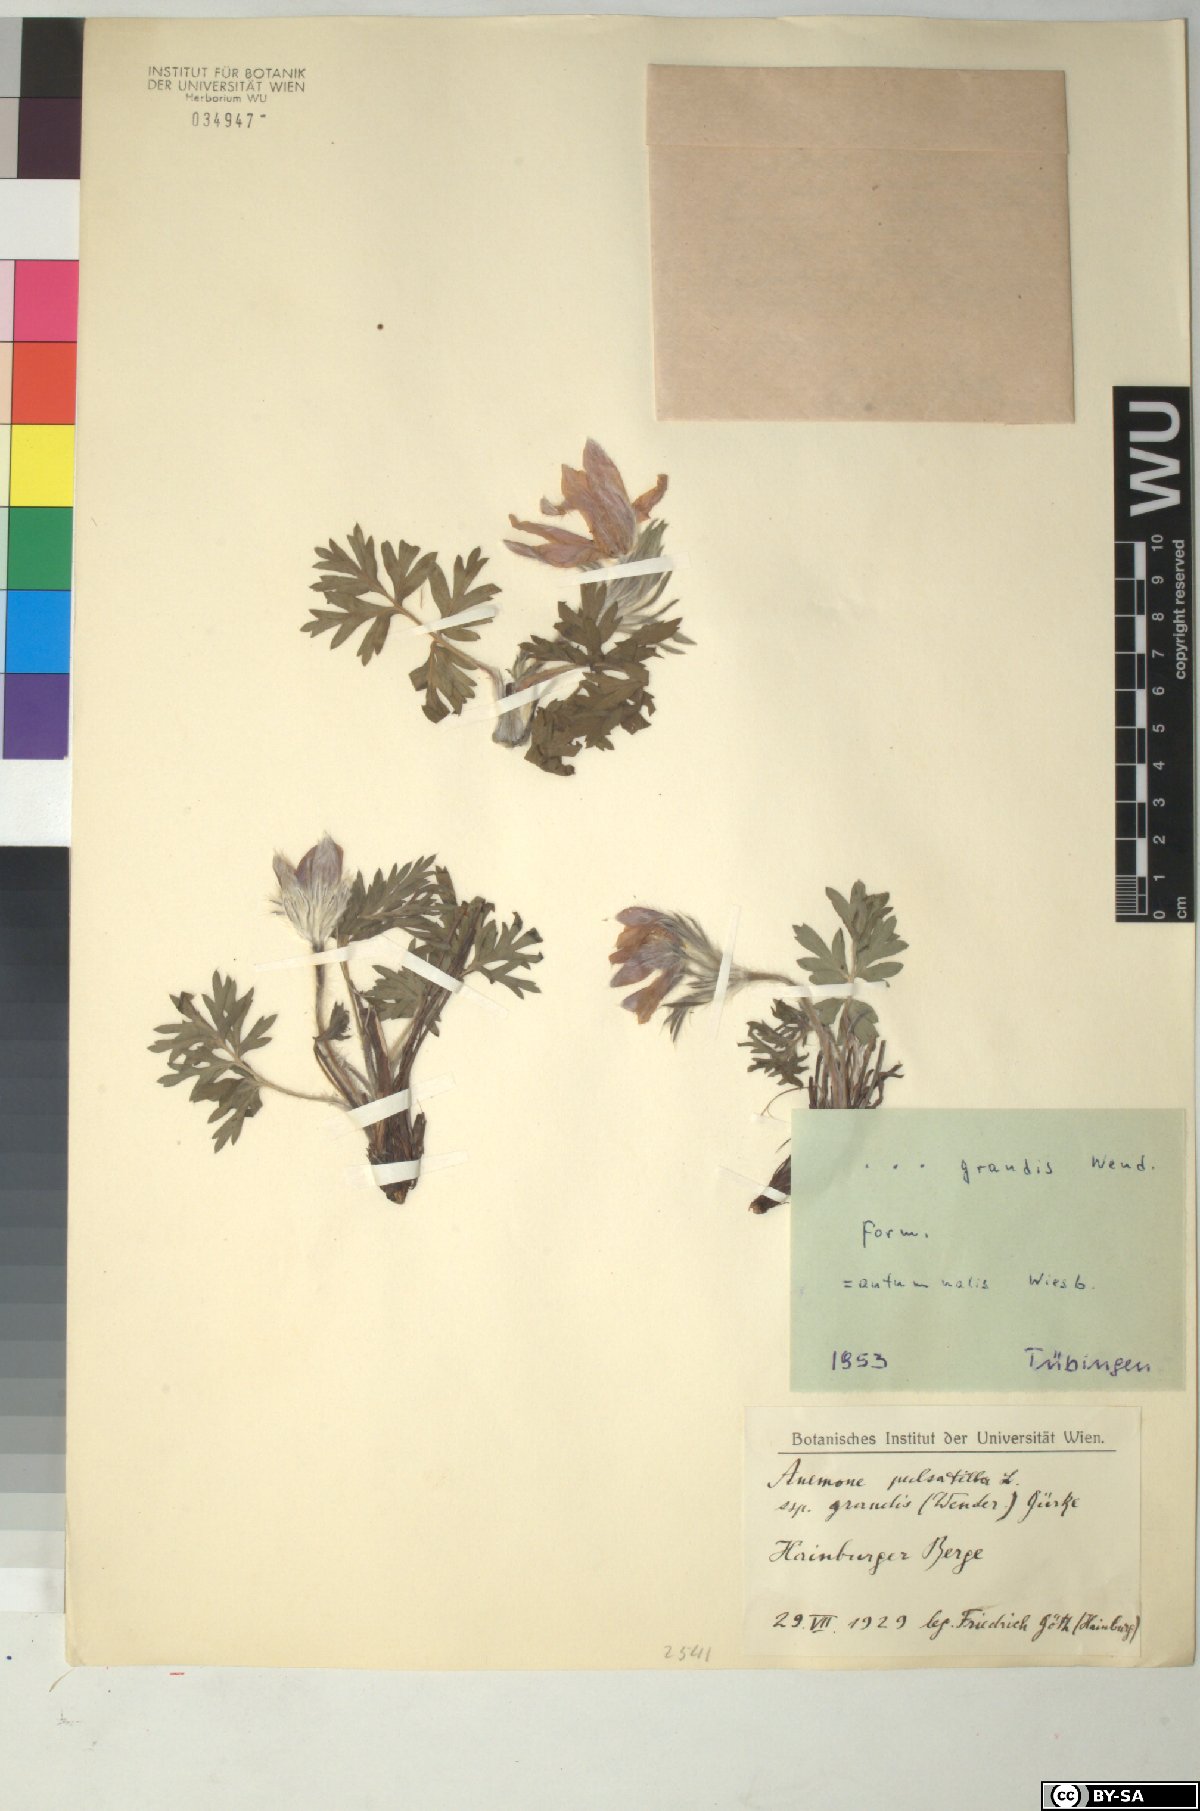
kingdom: Plantae
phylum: Tracheophyta
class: Magnoliopsida
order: Ranunculales
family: Ranunculaceae
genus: Pulsatilla
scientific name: Pulsatilla grandis
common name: Greater pasque flower
